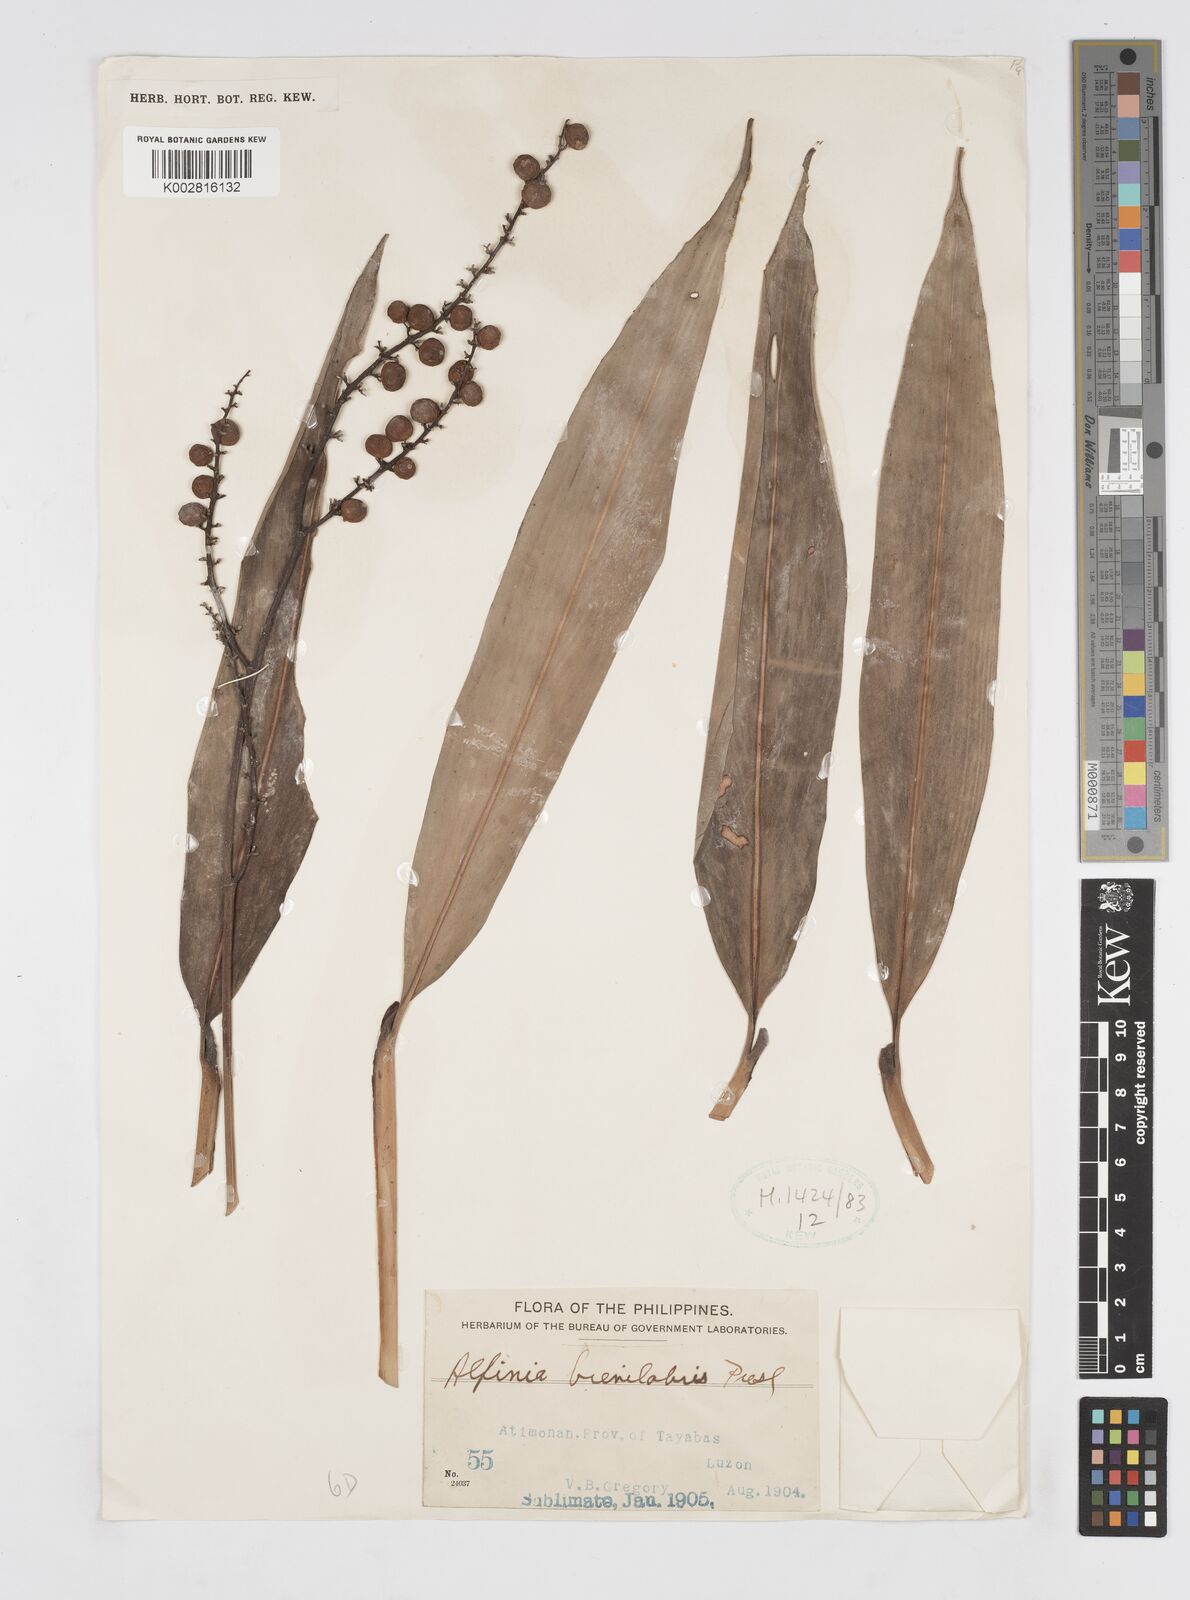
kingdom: Plantae
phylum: Tracheophyta
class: Liliopsida
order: Zingiberales
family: Zingiberaceae
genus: Alpinia
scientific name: Alpinia brevilabris
